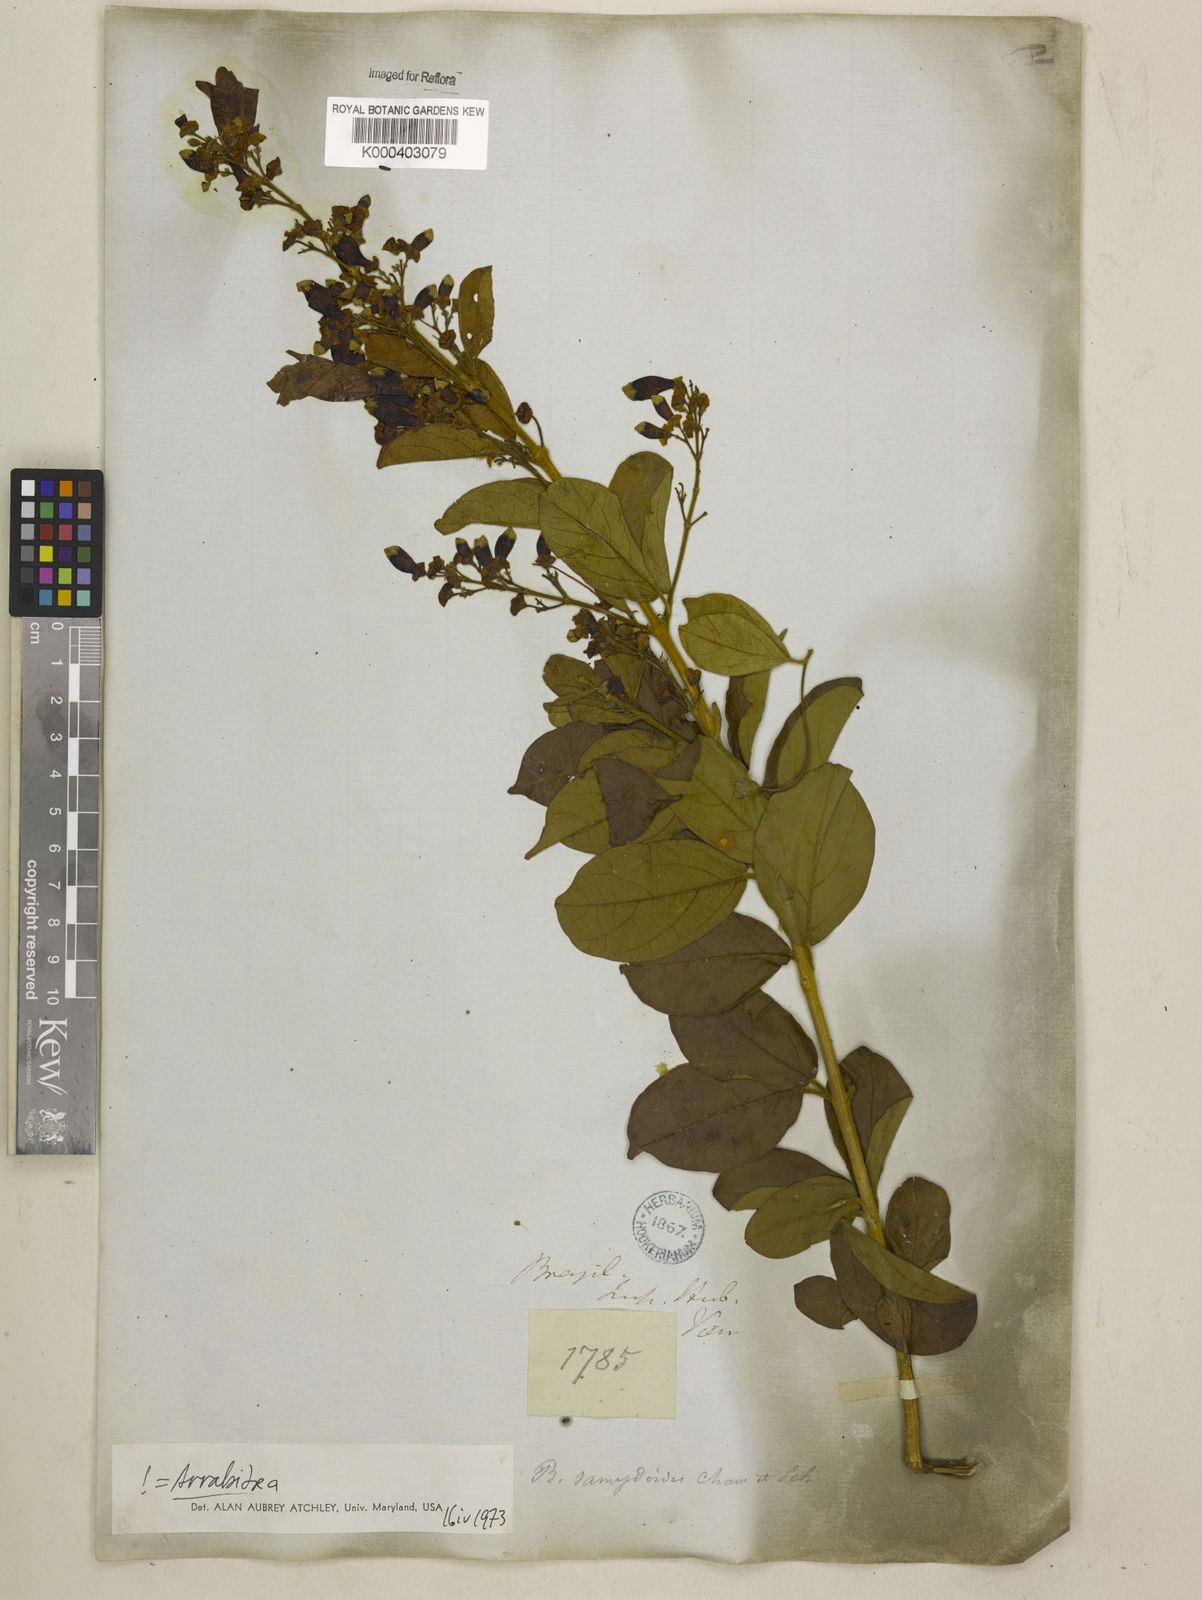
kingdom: Plantae
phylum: Tracheophyta
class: Magnoliopsida
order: Lamiales
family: Bignoniaceae
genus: Fridericia
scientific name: Fridericia samydoides
